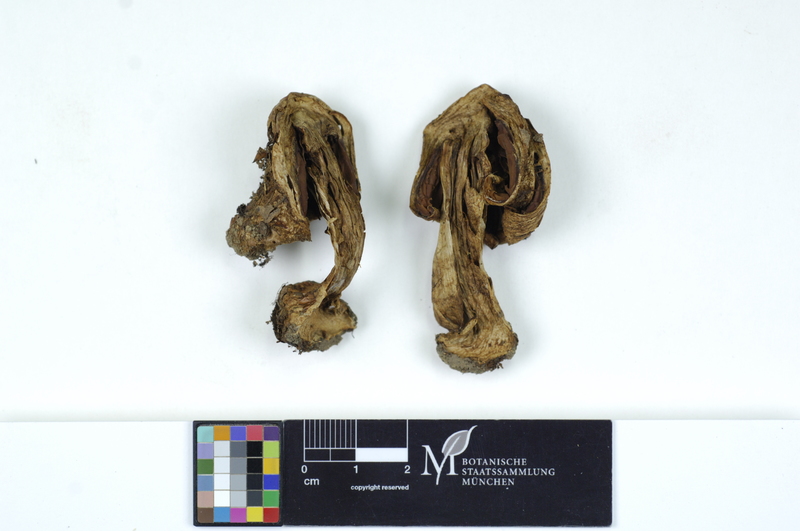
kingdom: Fungi
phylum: Basidiomycota
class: Agaricomycetes
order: Agaricales
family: Inocybaceae
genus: Inocybe
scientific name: Inocybe fraudans
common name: Pear fibrecap
